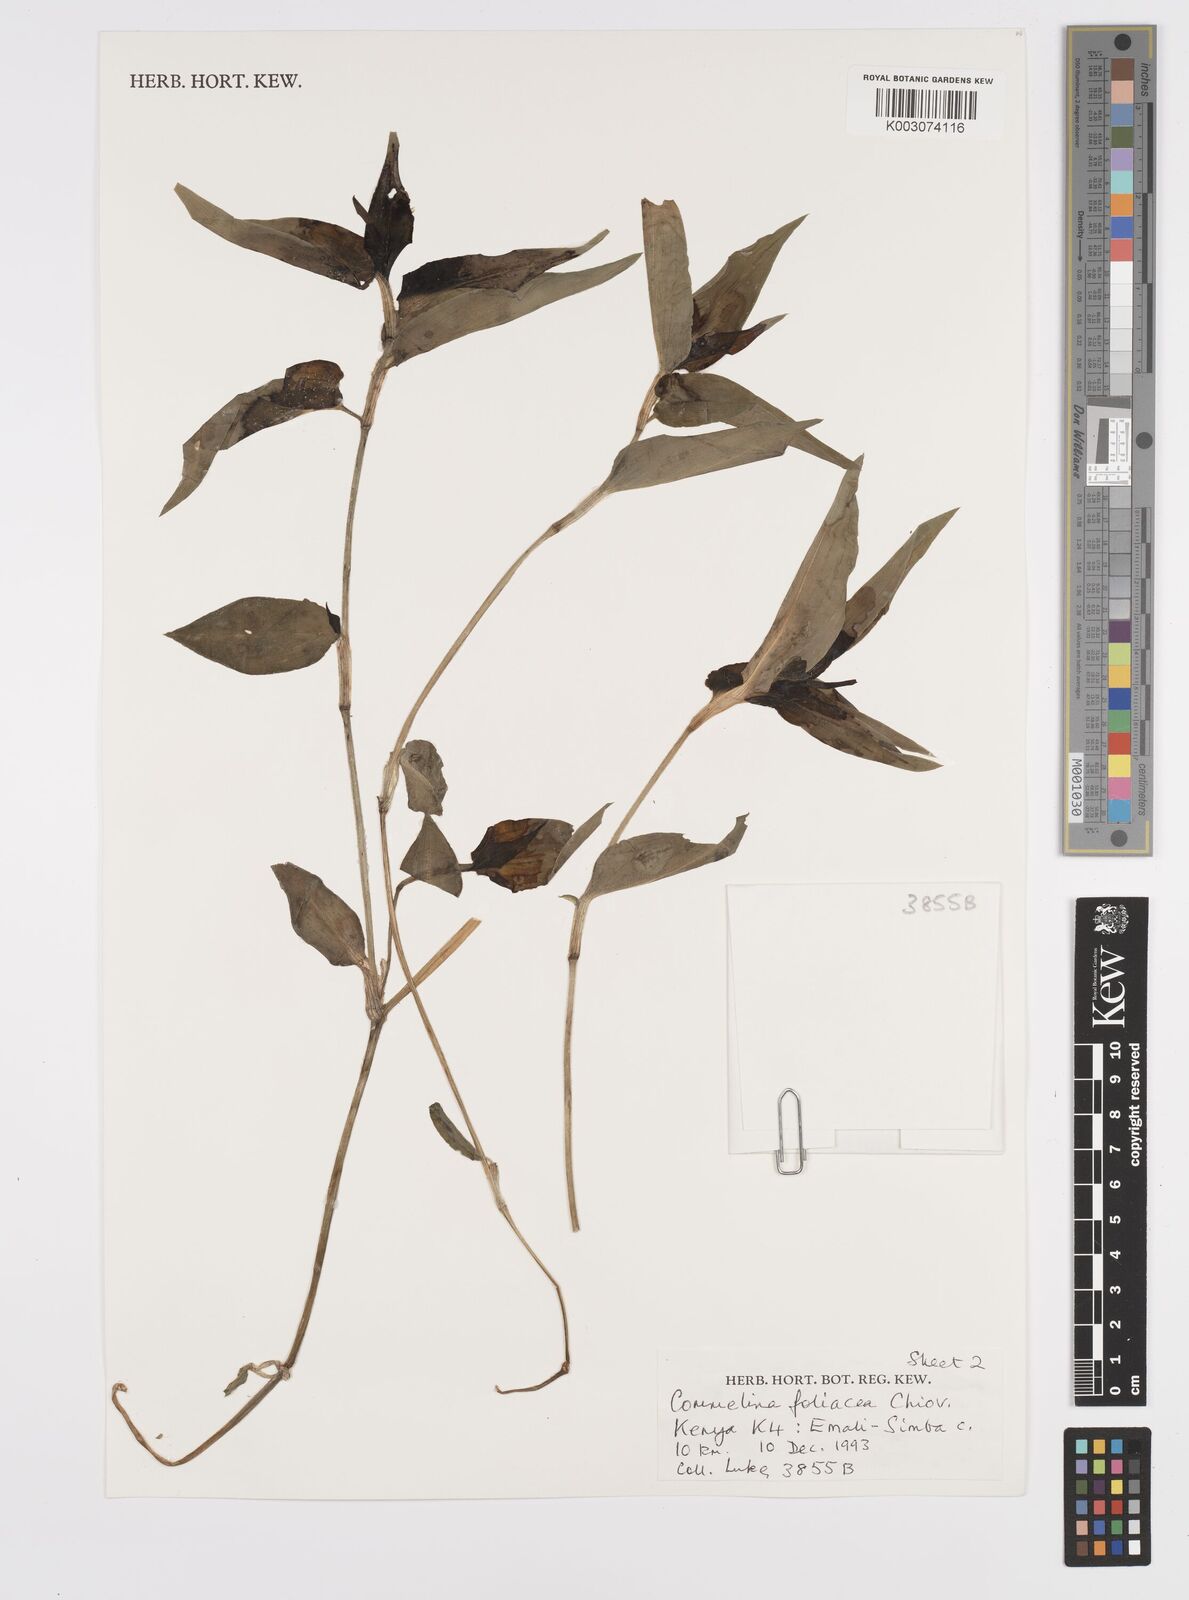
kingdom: Plantae
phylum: Tracheophyta
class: Liliopsida
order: Commelinales
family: Commelinaceae
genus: Commelina
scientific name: Commelina foliacea
